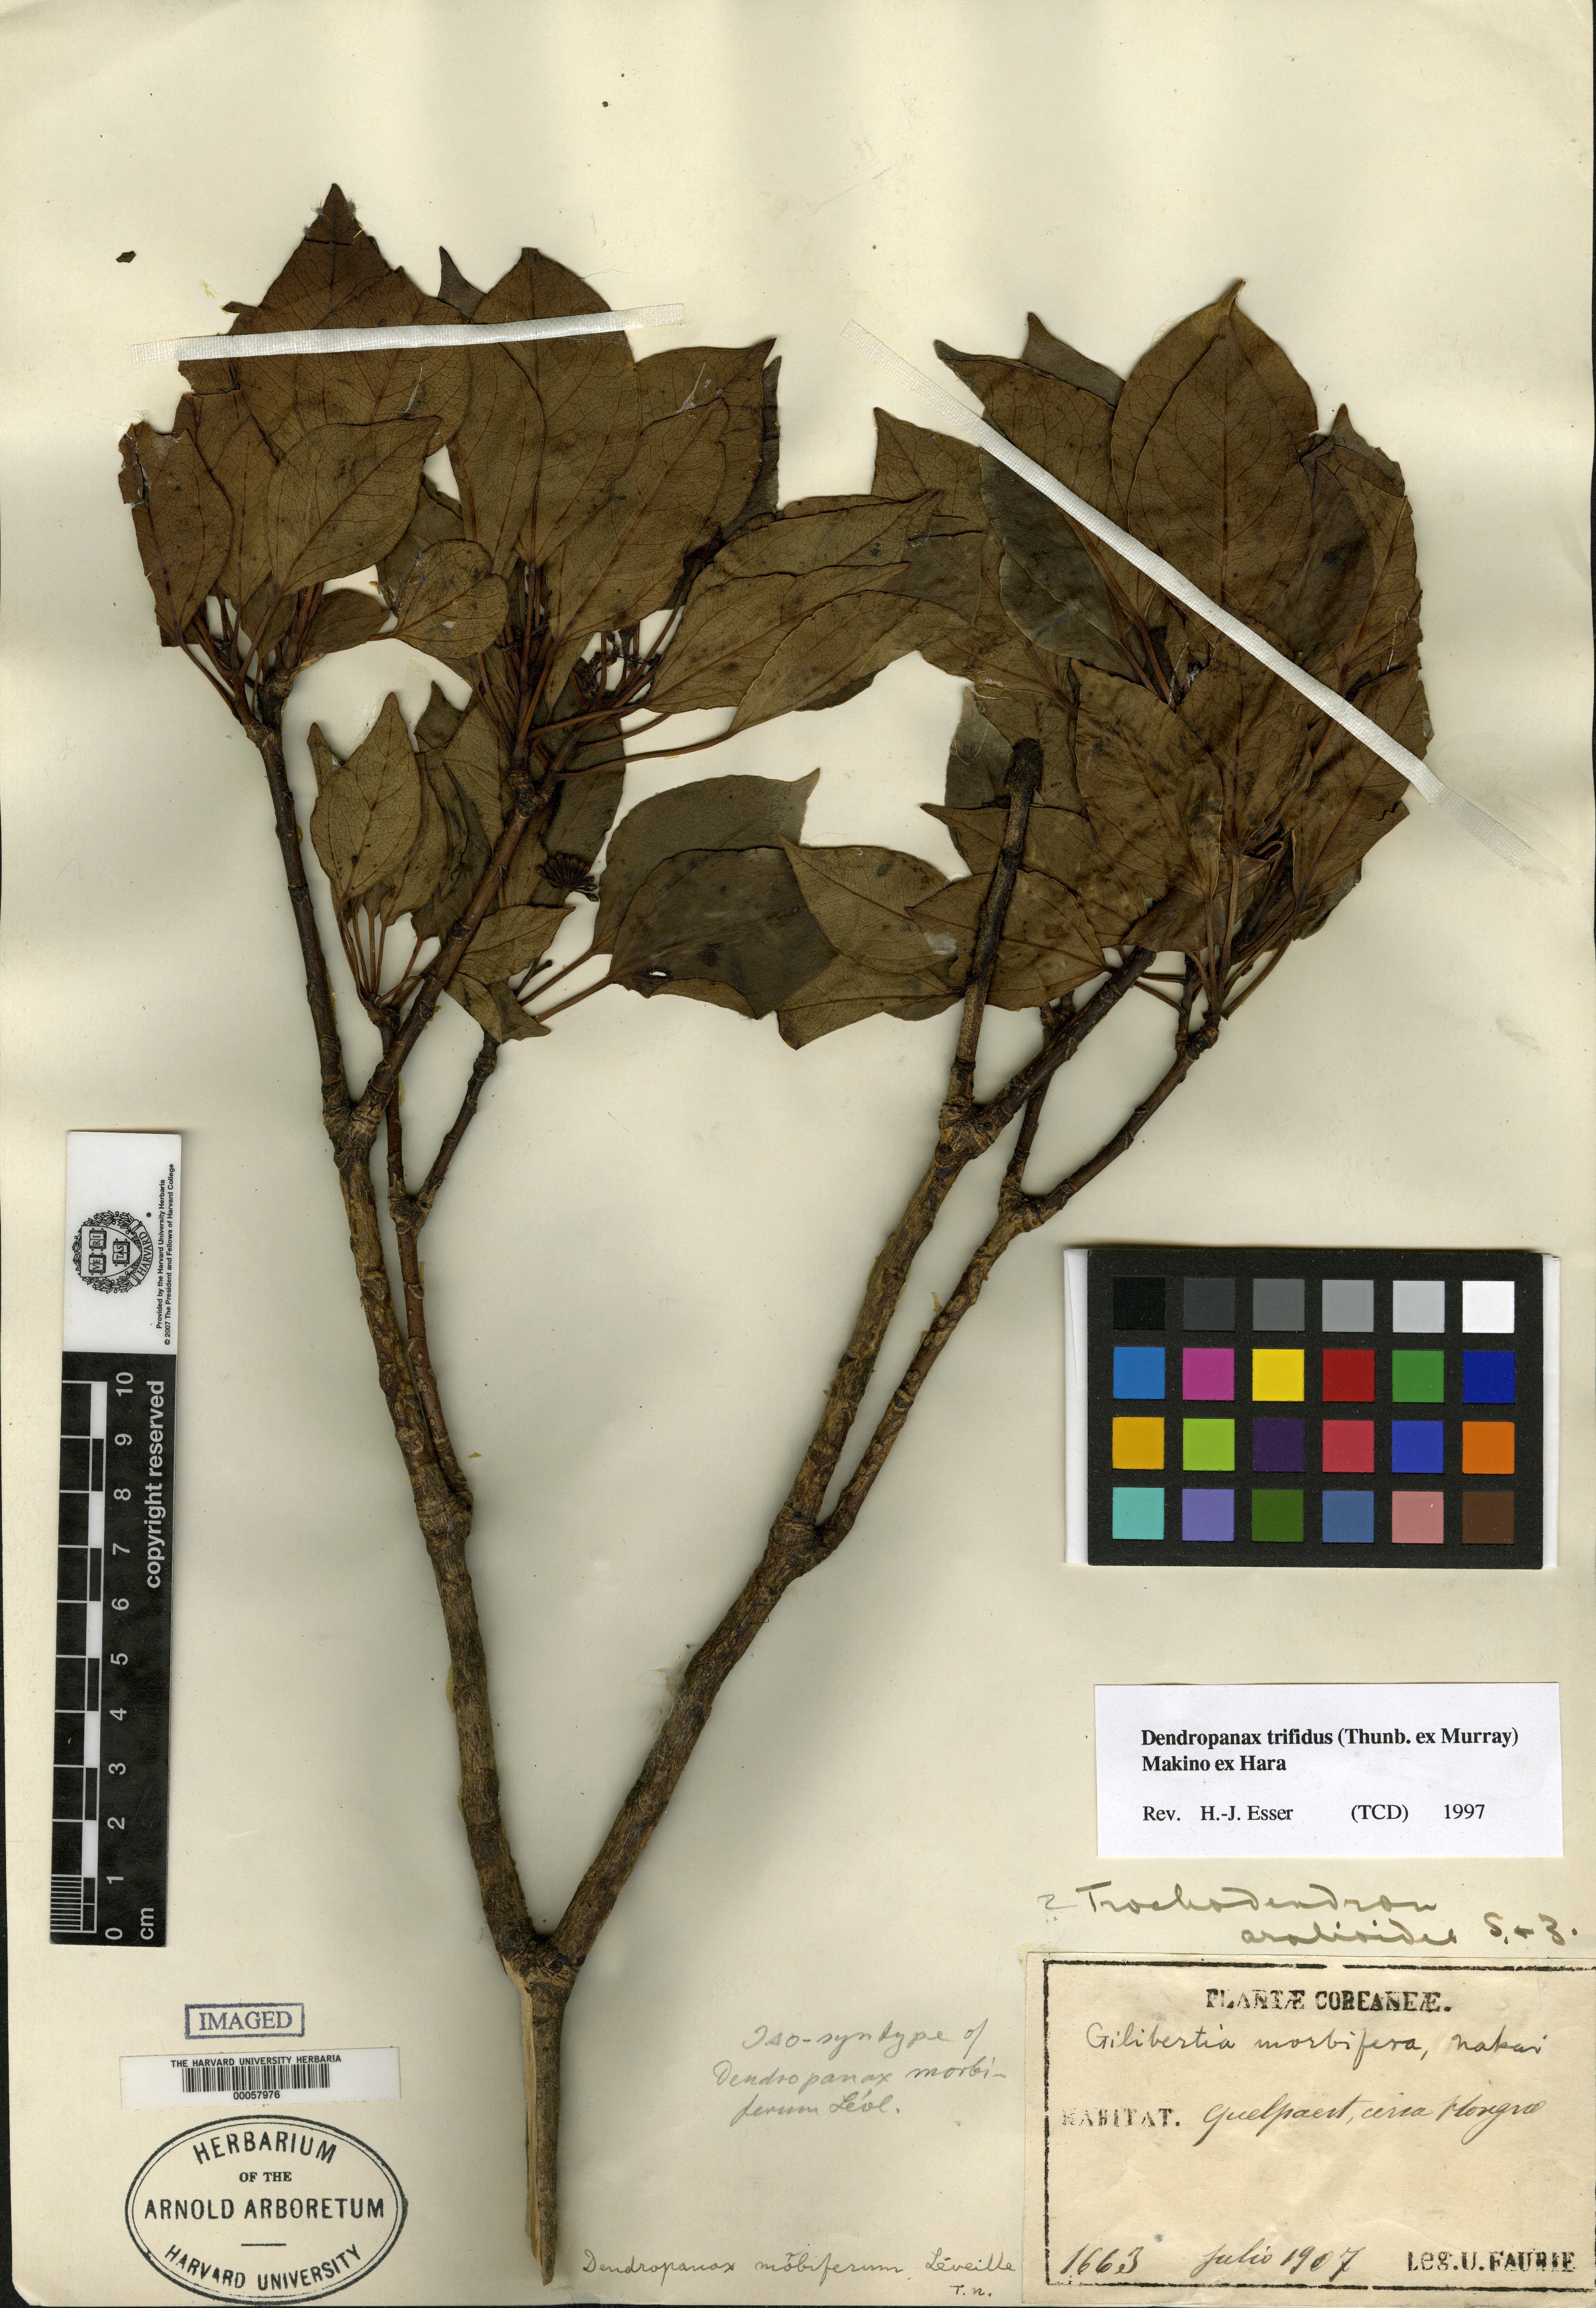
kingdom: Plantae
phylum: Tracheophyta
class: Magnoliopsida
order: Apiales
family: Araliaceae
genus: Dendropanax
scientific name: Dendropanax trifidus
